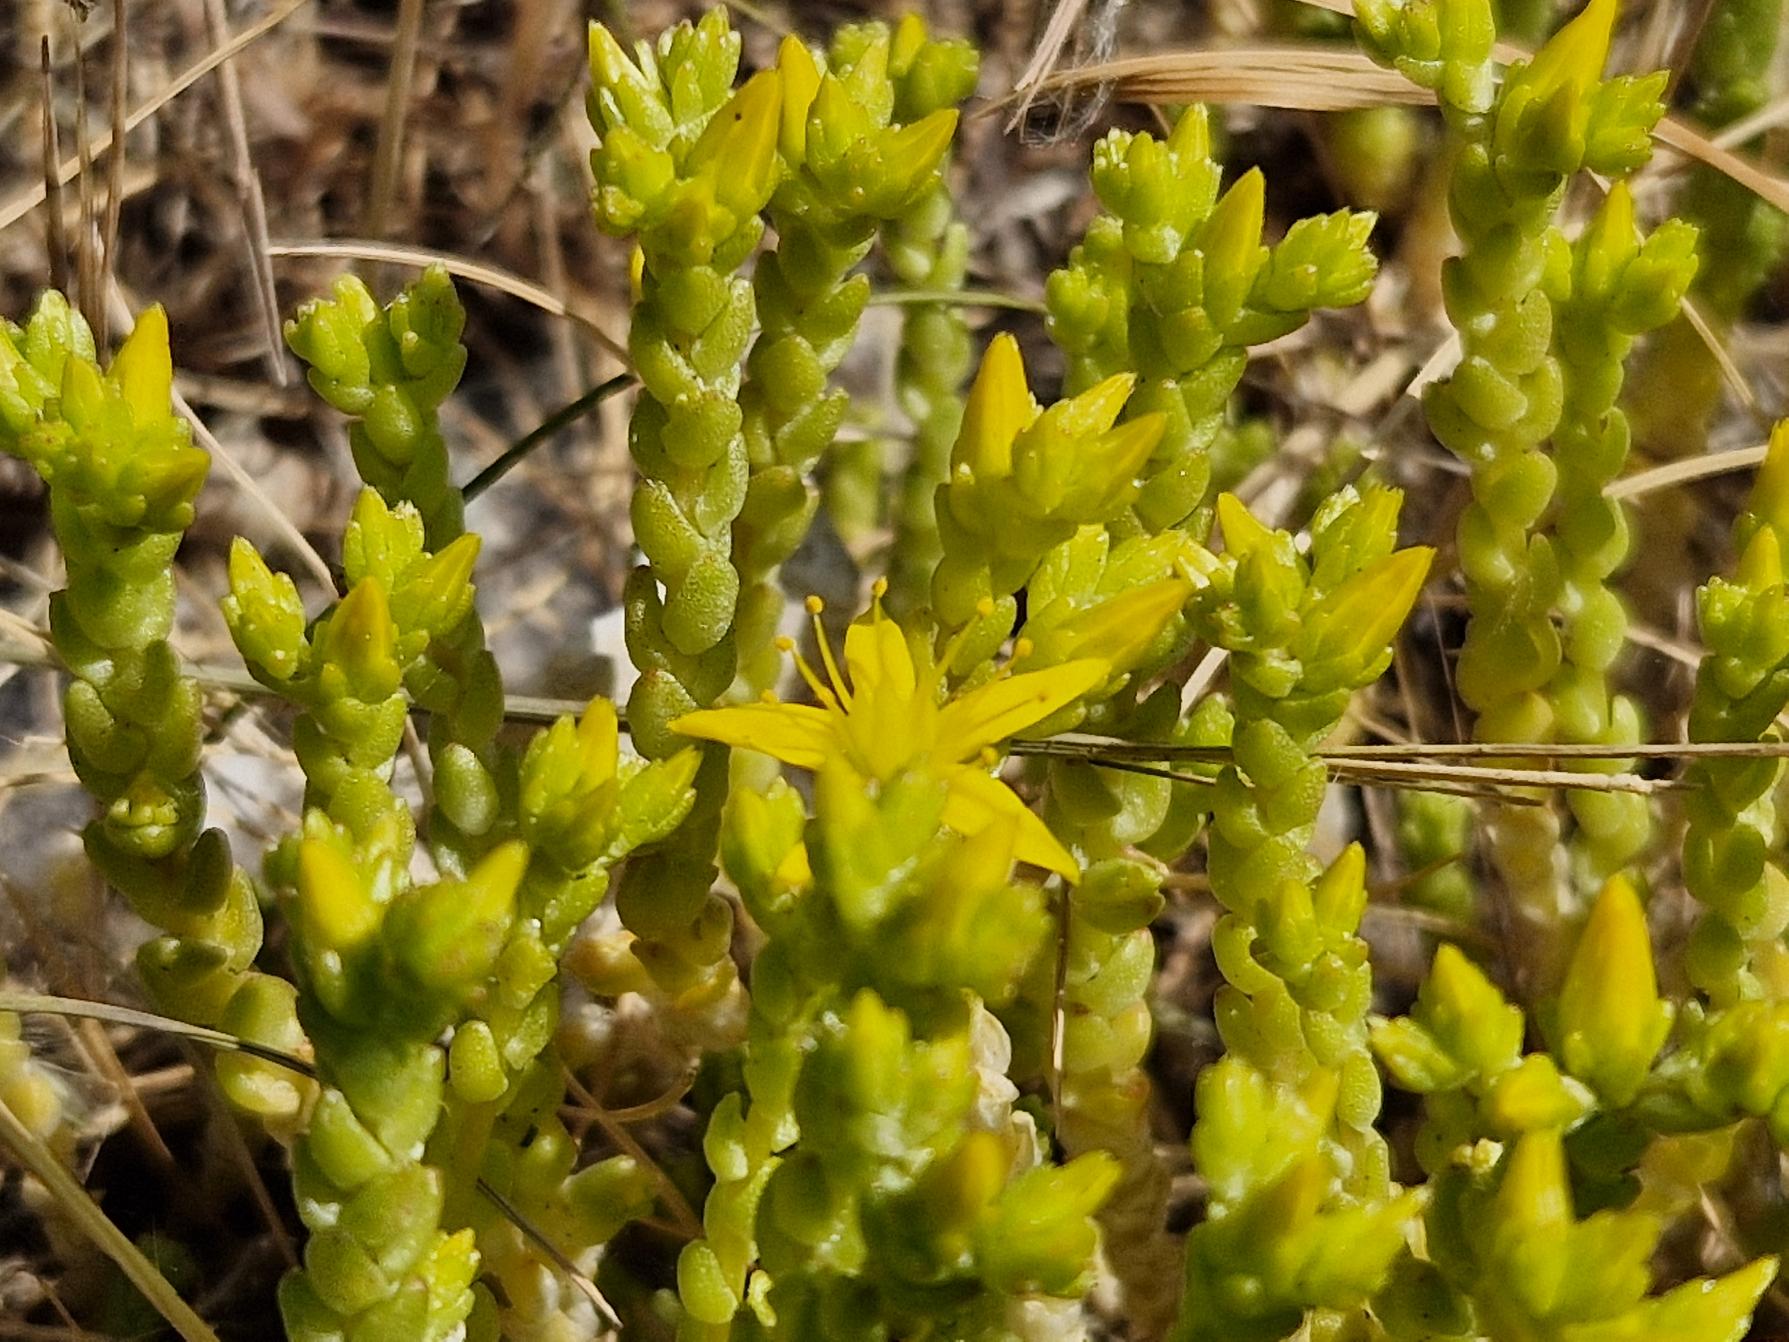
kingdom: Plantae
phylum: Tracheophyta
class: Magnoliopsida
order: Saxifragales
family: Crassulaceae
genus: Sedum
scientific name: Sedum acre
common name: Bidende stenurt
